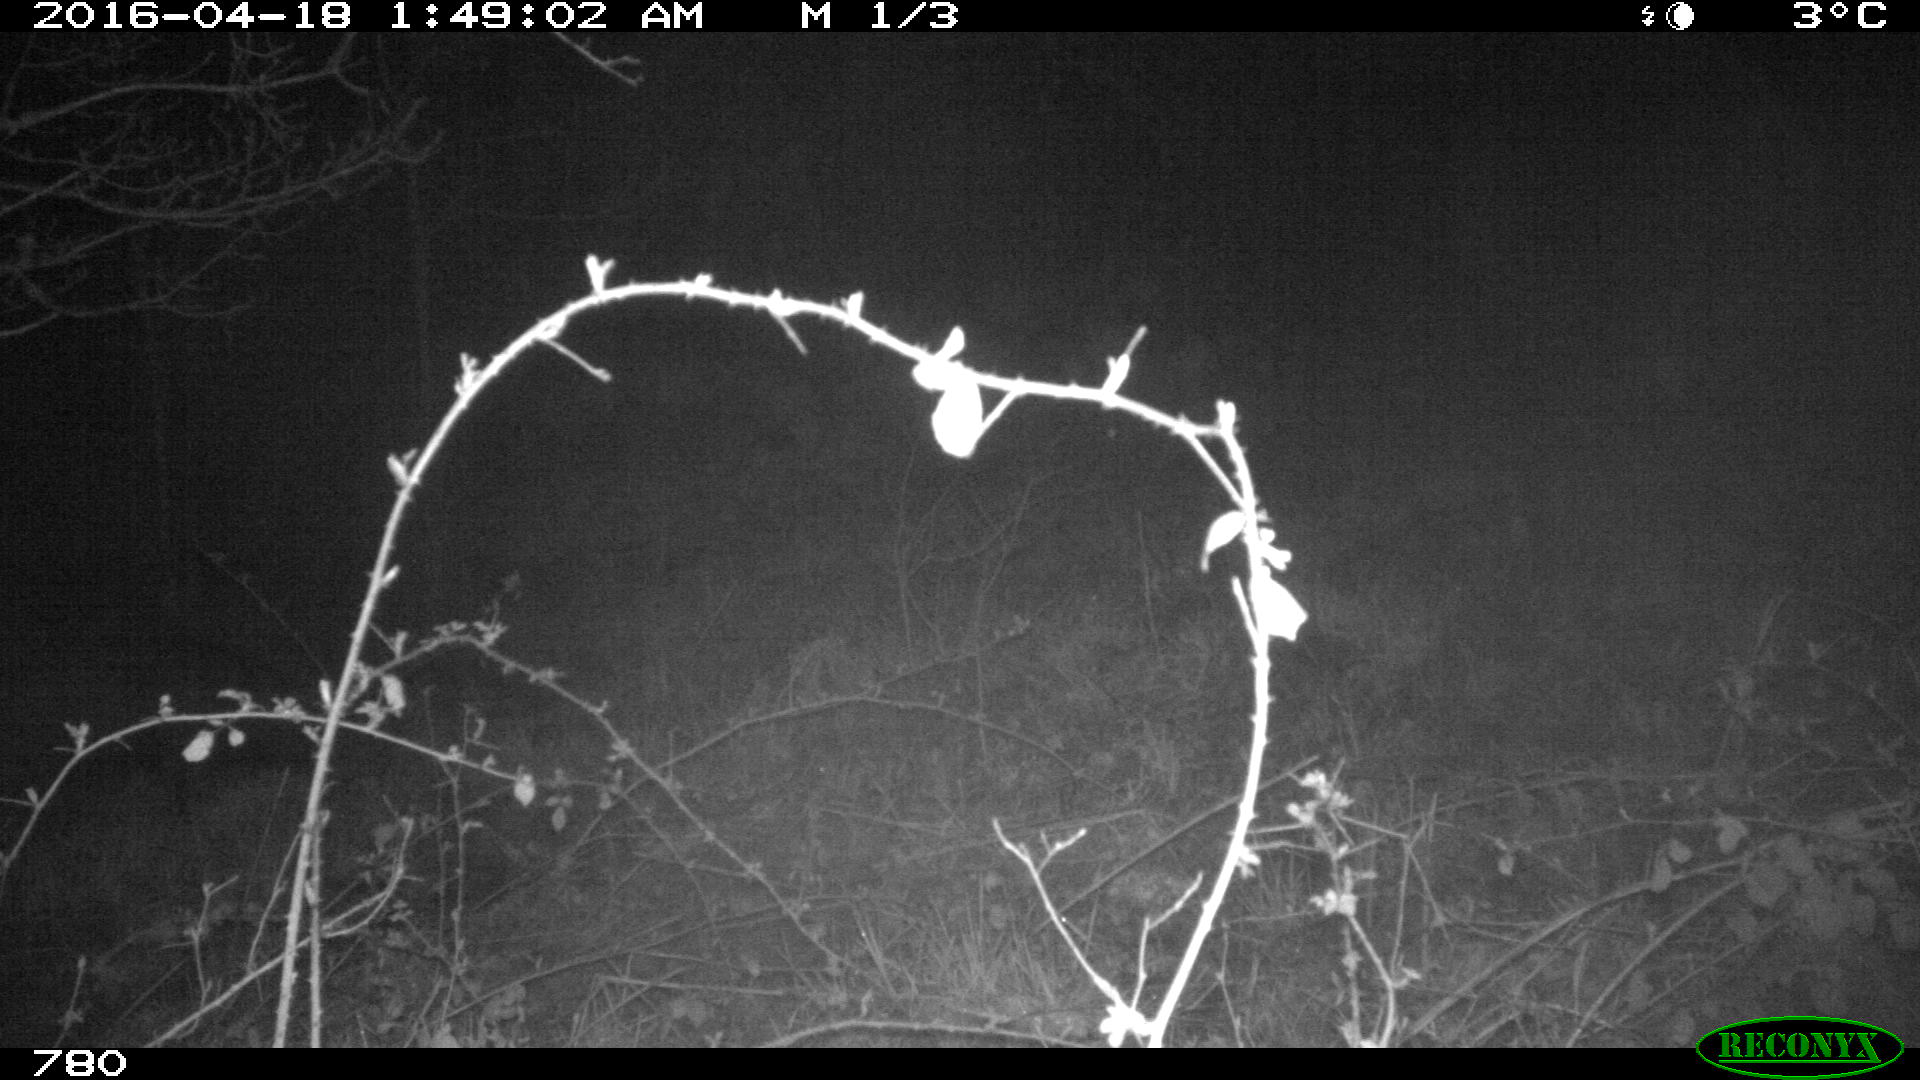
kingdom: Animalia
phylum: Chordata
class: Mammalia
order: Artiodactyla
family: Suidae
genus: Sus
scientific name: Sus scrofa
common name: Wild boar
